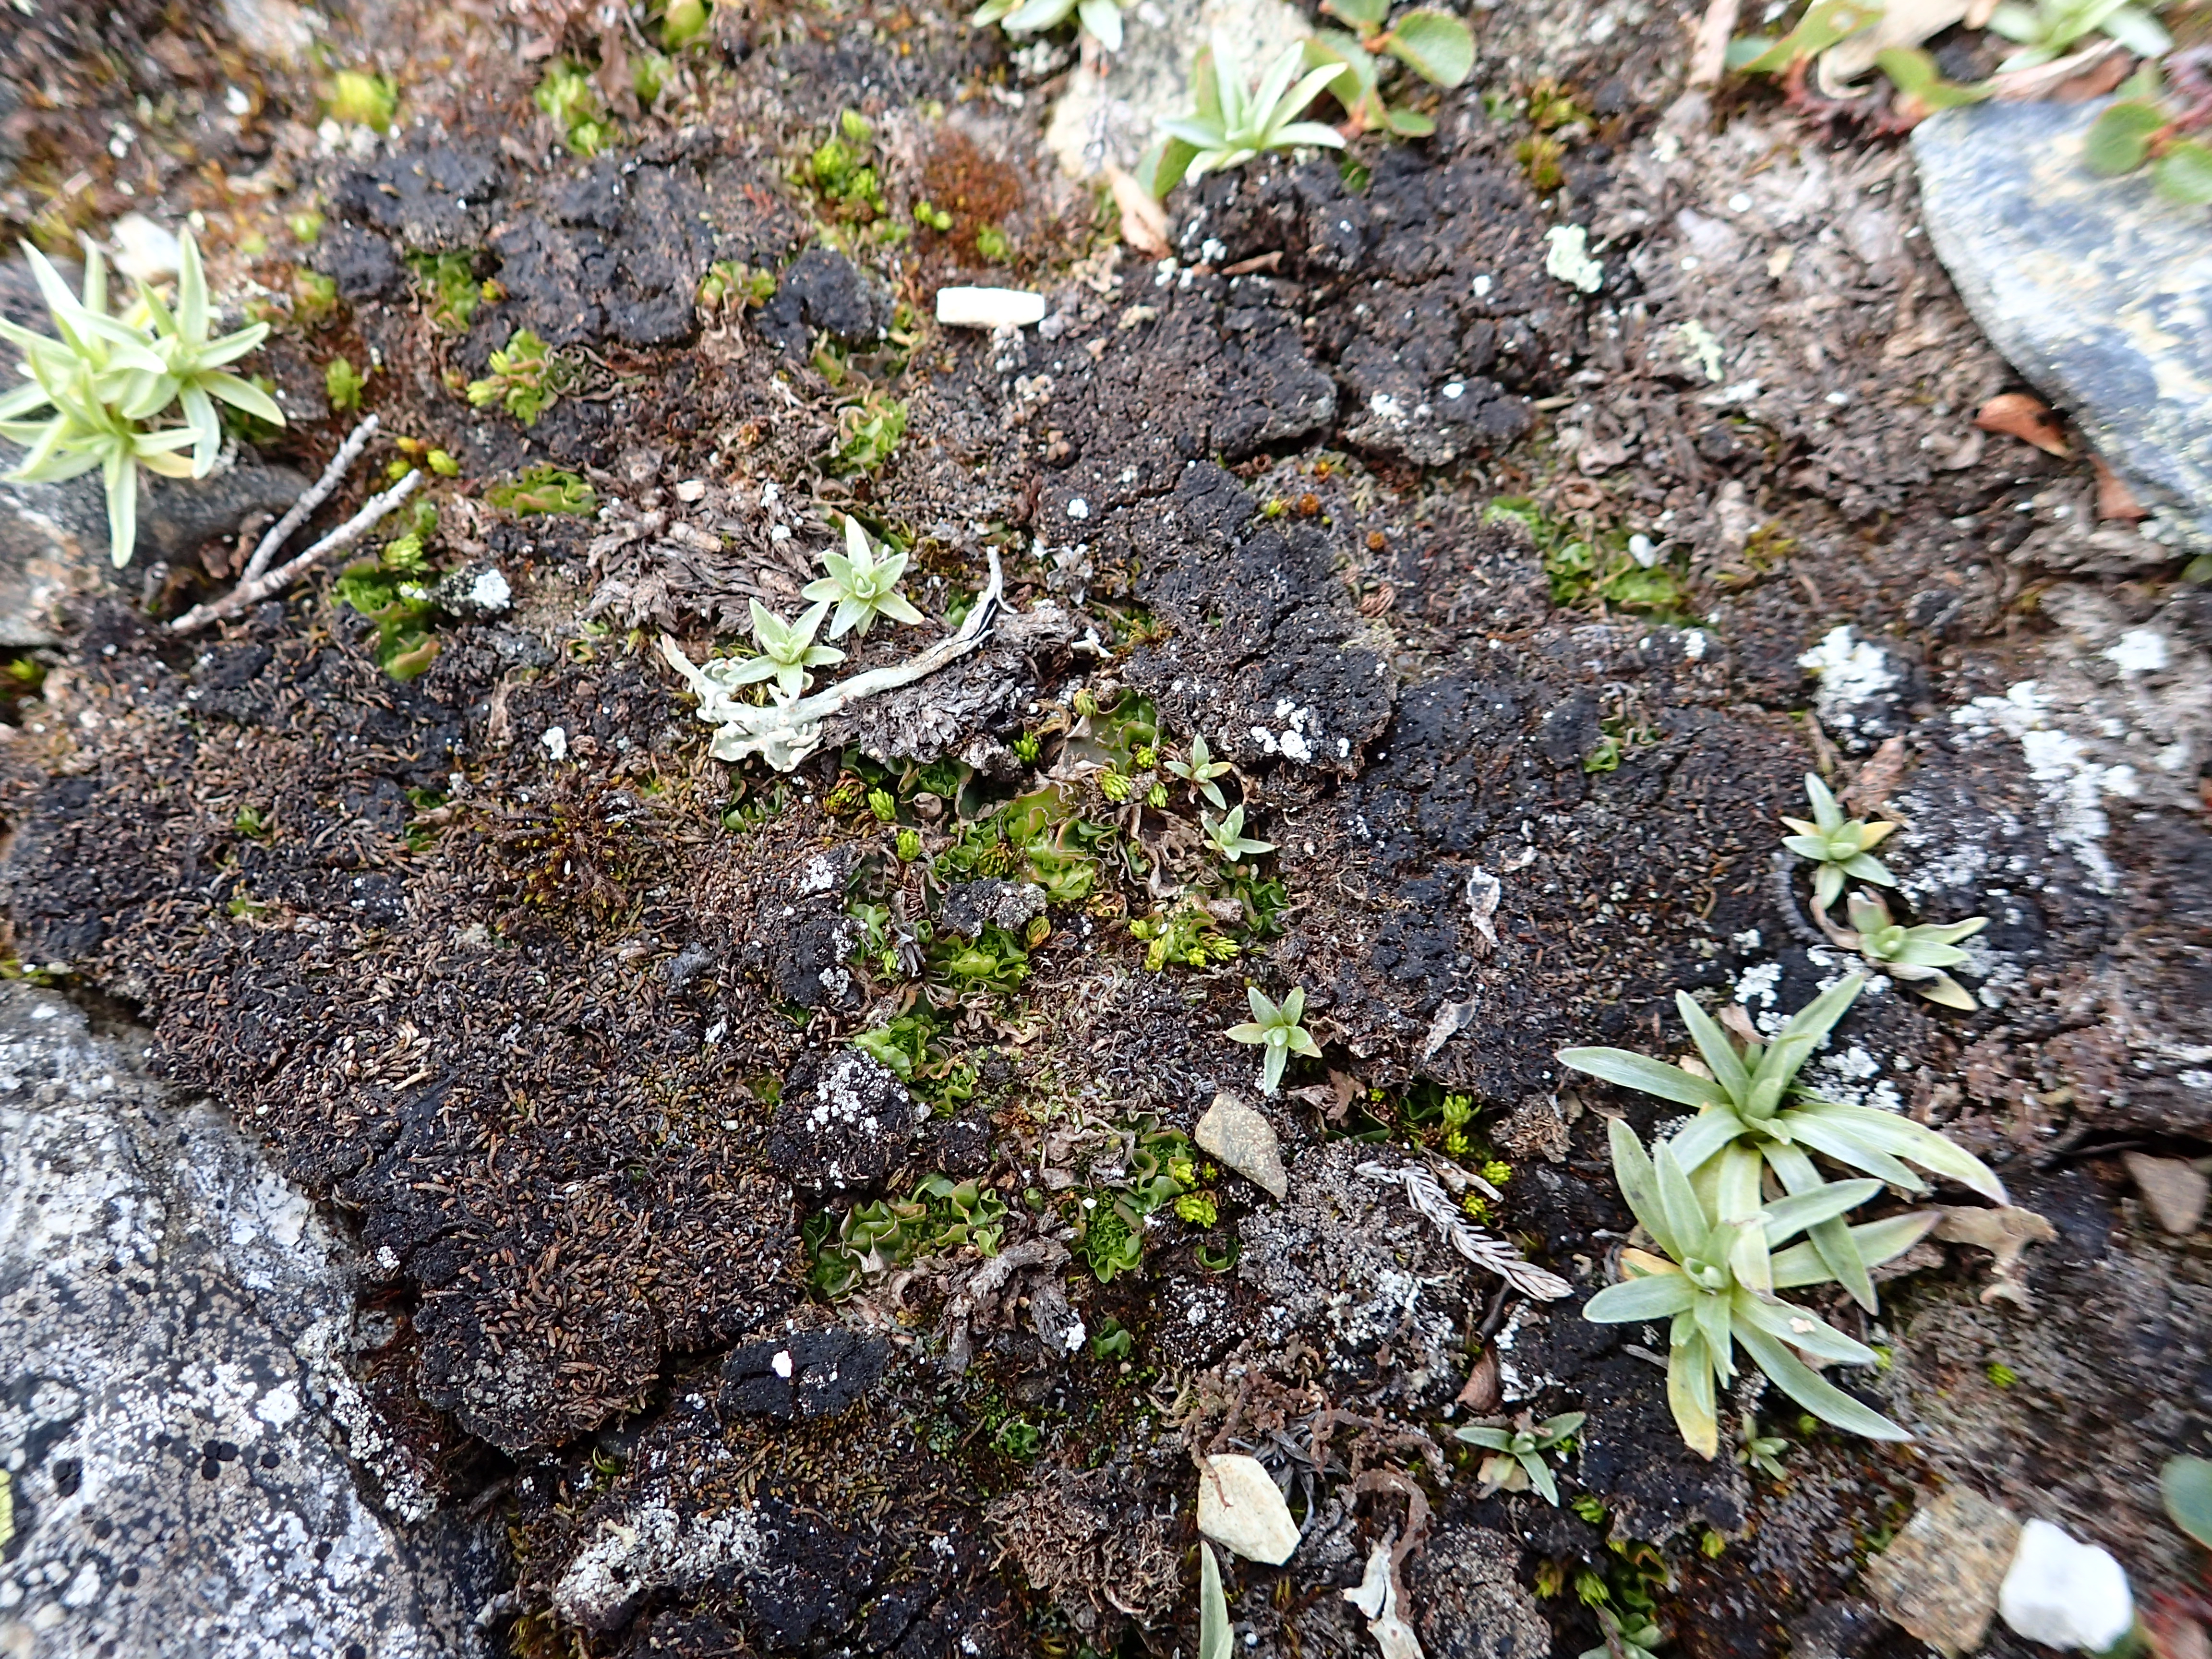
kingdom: Plantae
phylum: Marchantiophyta
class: Jungermanniopsida
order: Pallaviciniales
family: Pseudomoerckiaceae
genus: Pseudomoerckia
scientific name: Pseudomoerckia blyttii
